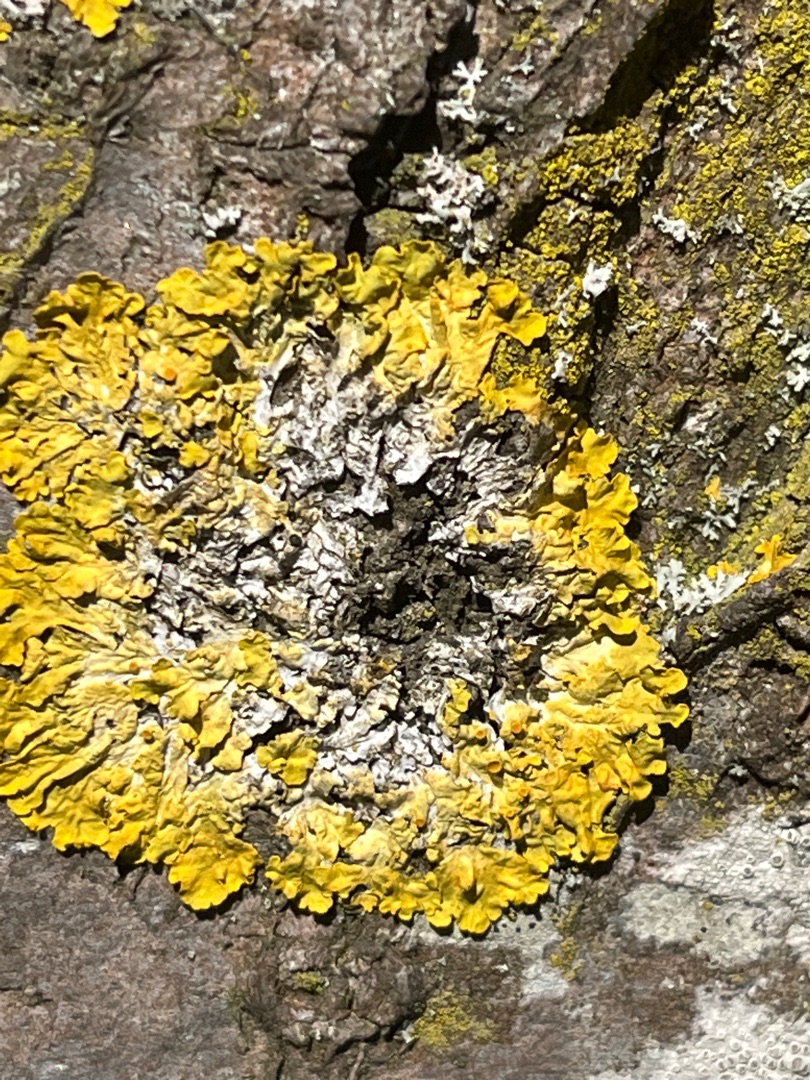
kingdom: Fungi
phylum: Ascomycota
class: Lecanoromycetes
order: Teloschistales
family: Teloschistaceae
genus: Xanthoria
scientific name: Xanthoria parietina
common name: Almindelig væggelav
